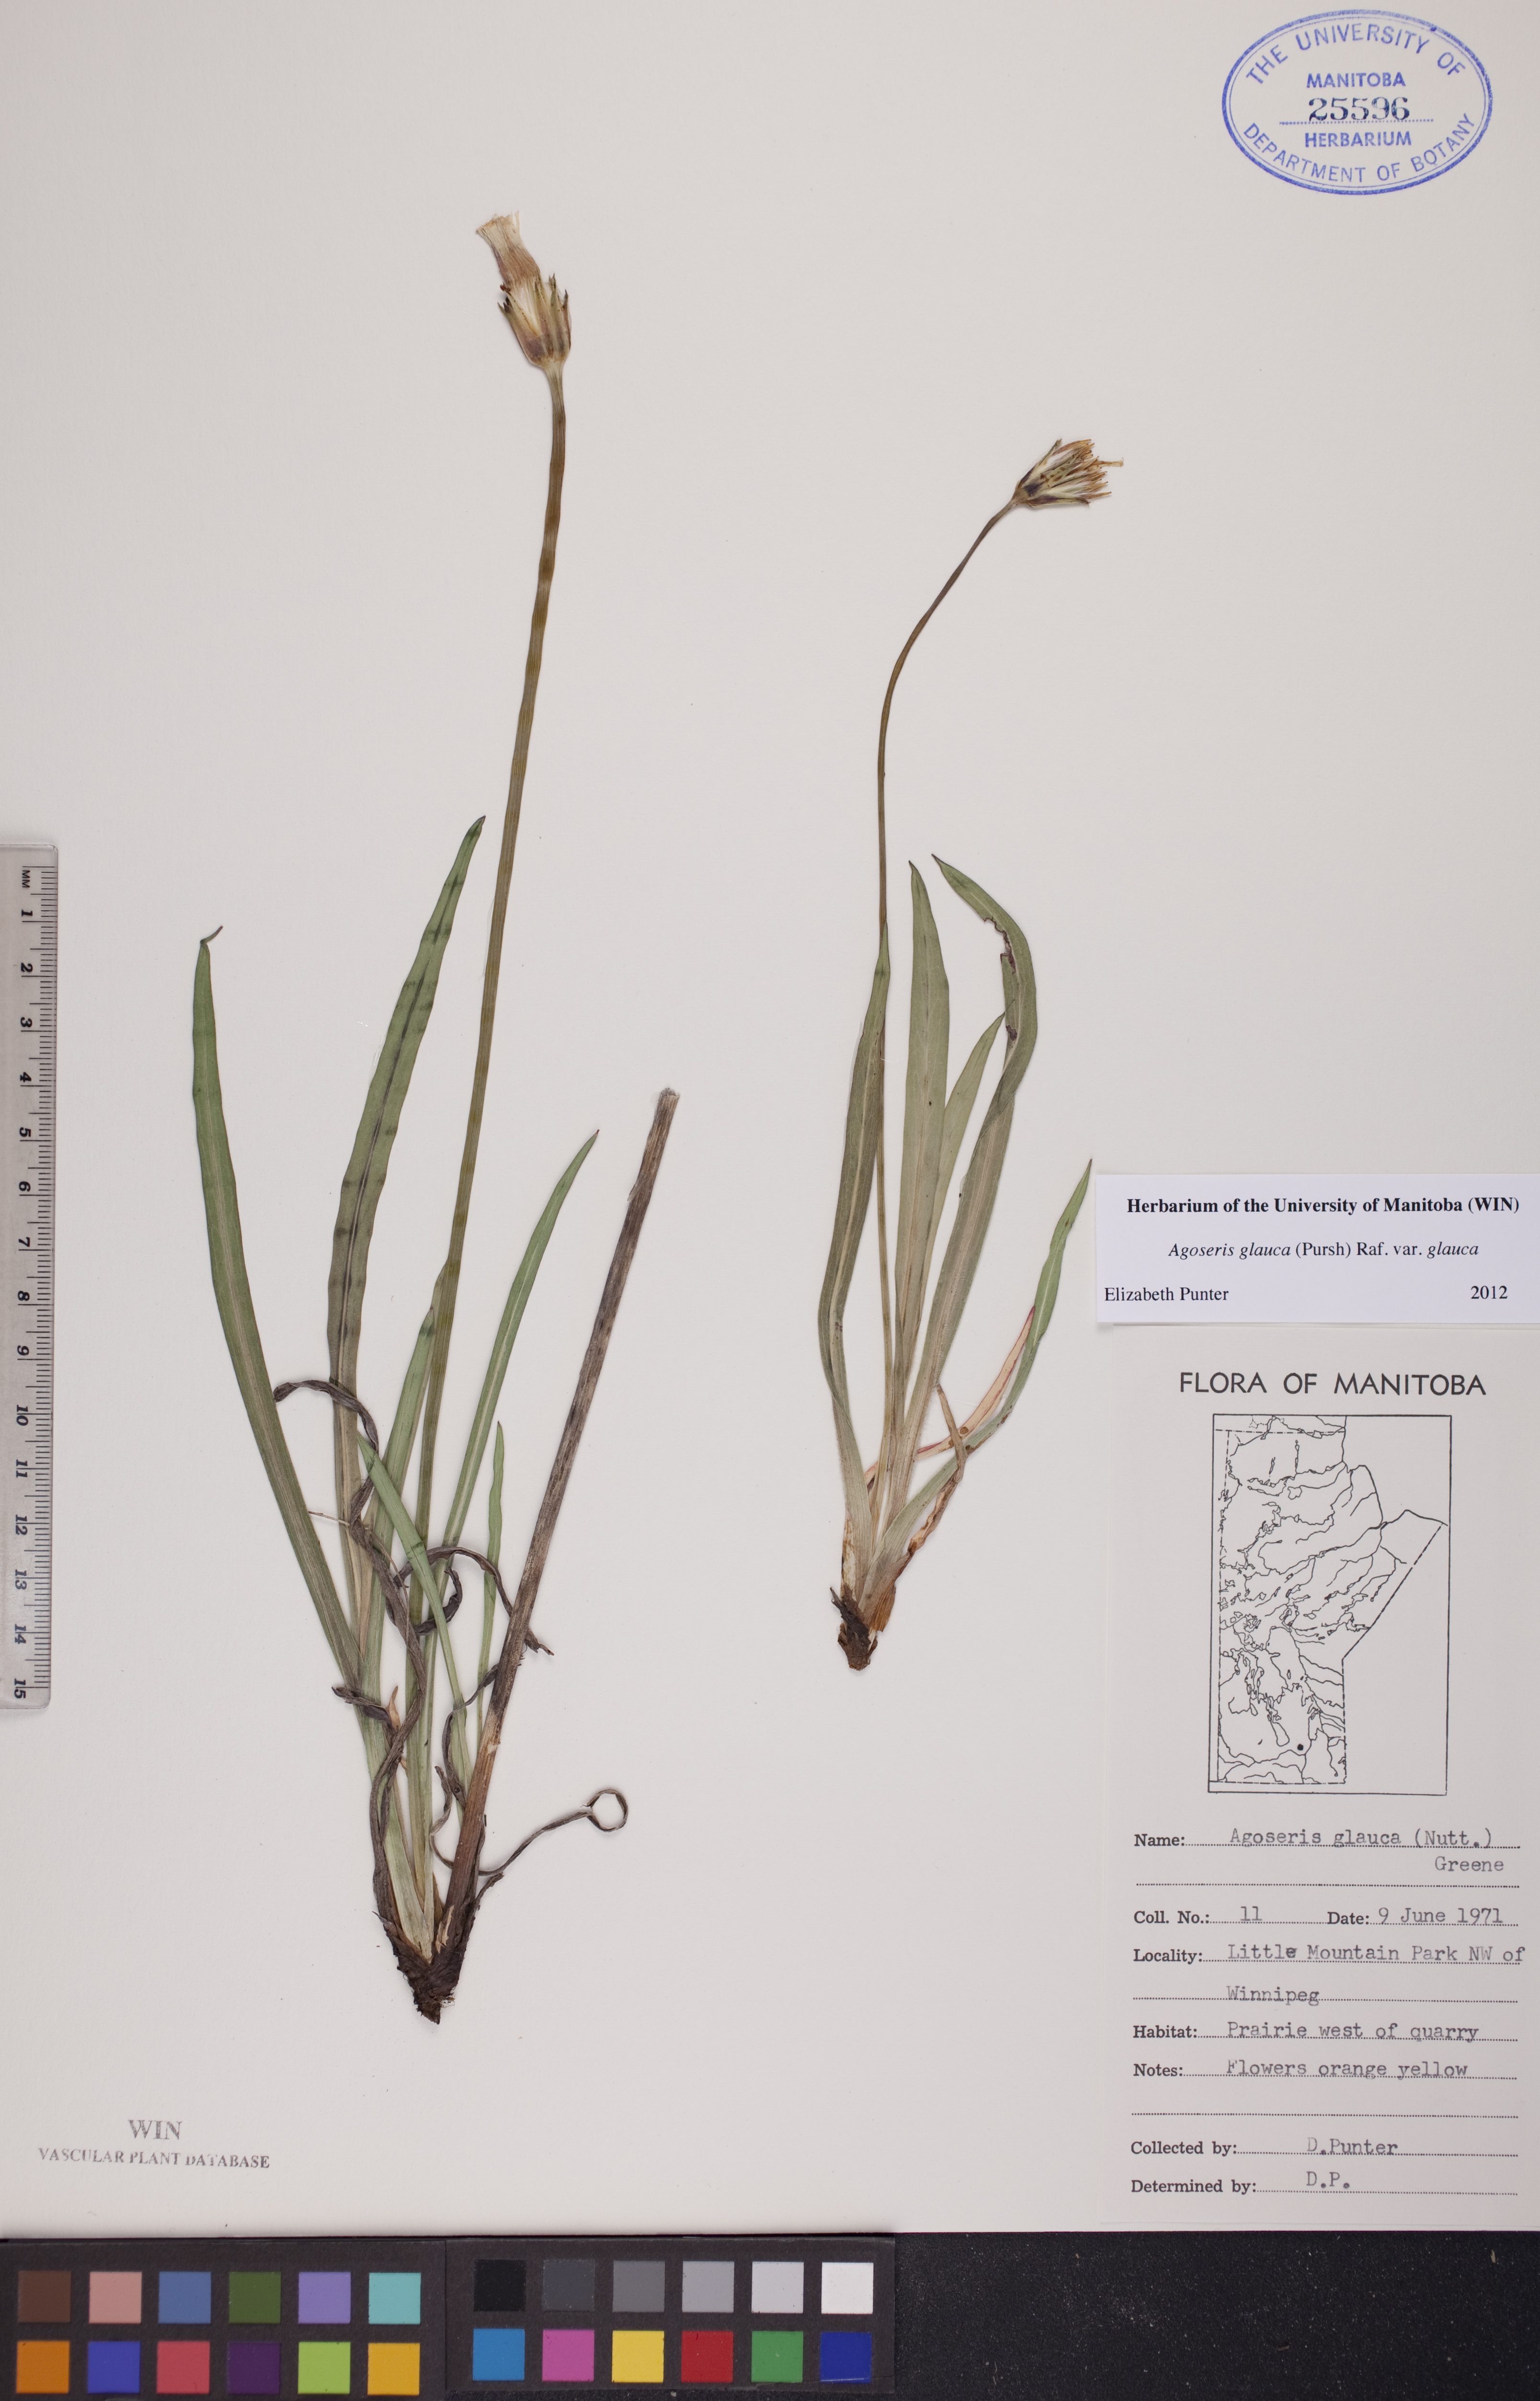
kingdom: Plantae
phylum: Tracheophyta
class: Magnoliopsida
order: Asterales
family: Asteraceae
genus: Agoseris
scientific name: Agoseris glauca
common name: Prairie agoseris
